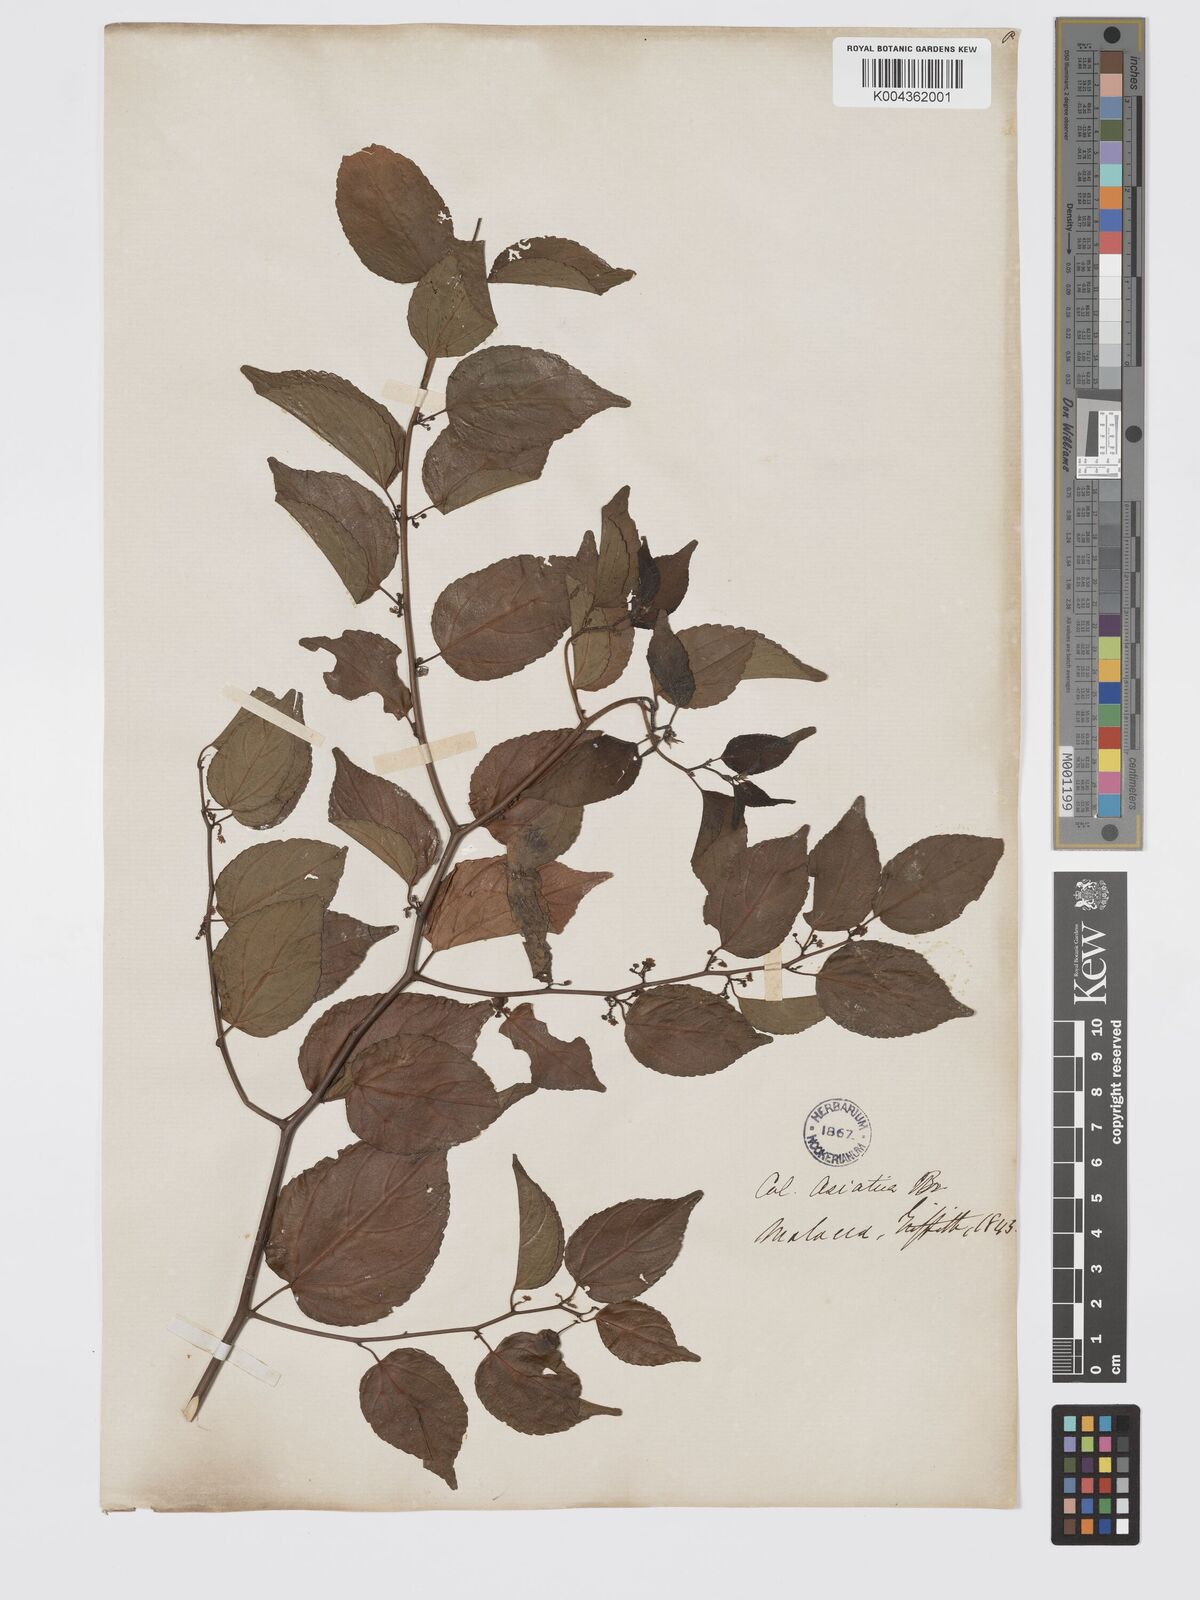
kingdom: Plantae
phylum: Tracheophyta
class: Magnoliopsida
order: Rosales
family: Rhamnaceae
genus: Colubrina
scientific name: Colubrina asiatica
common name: Asian nakedwood
